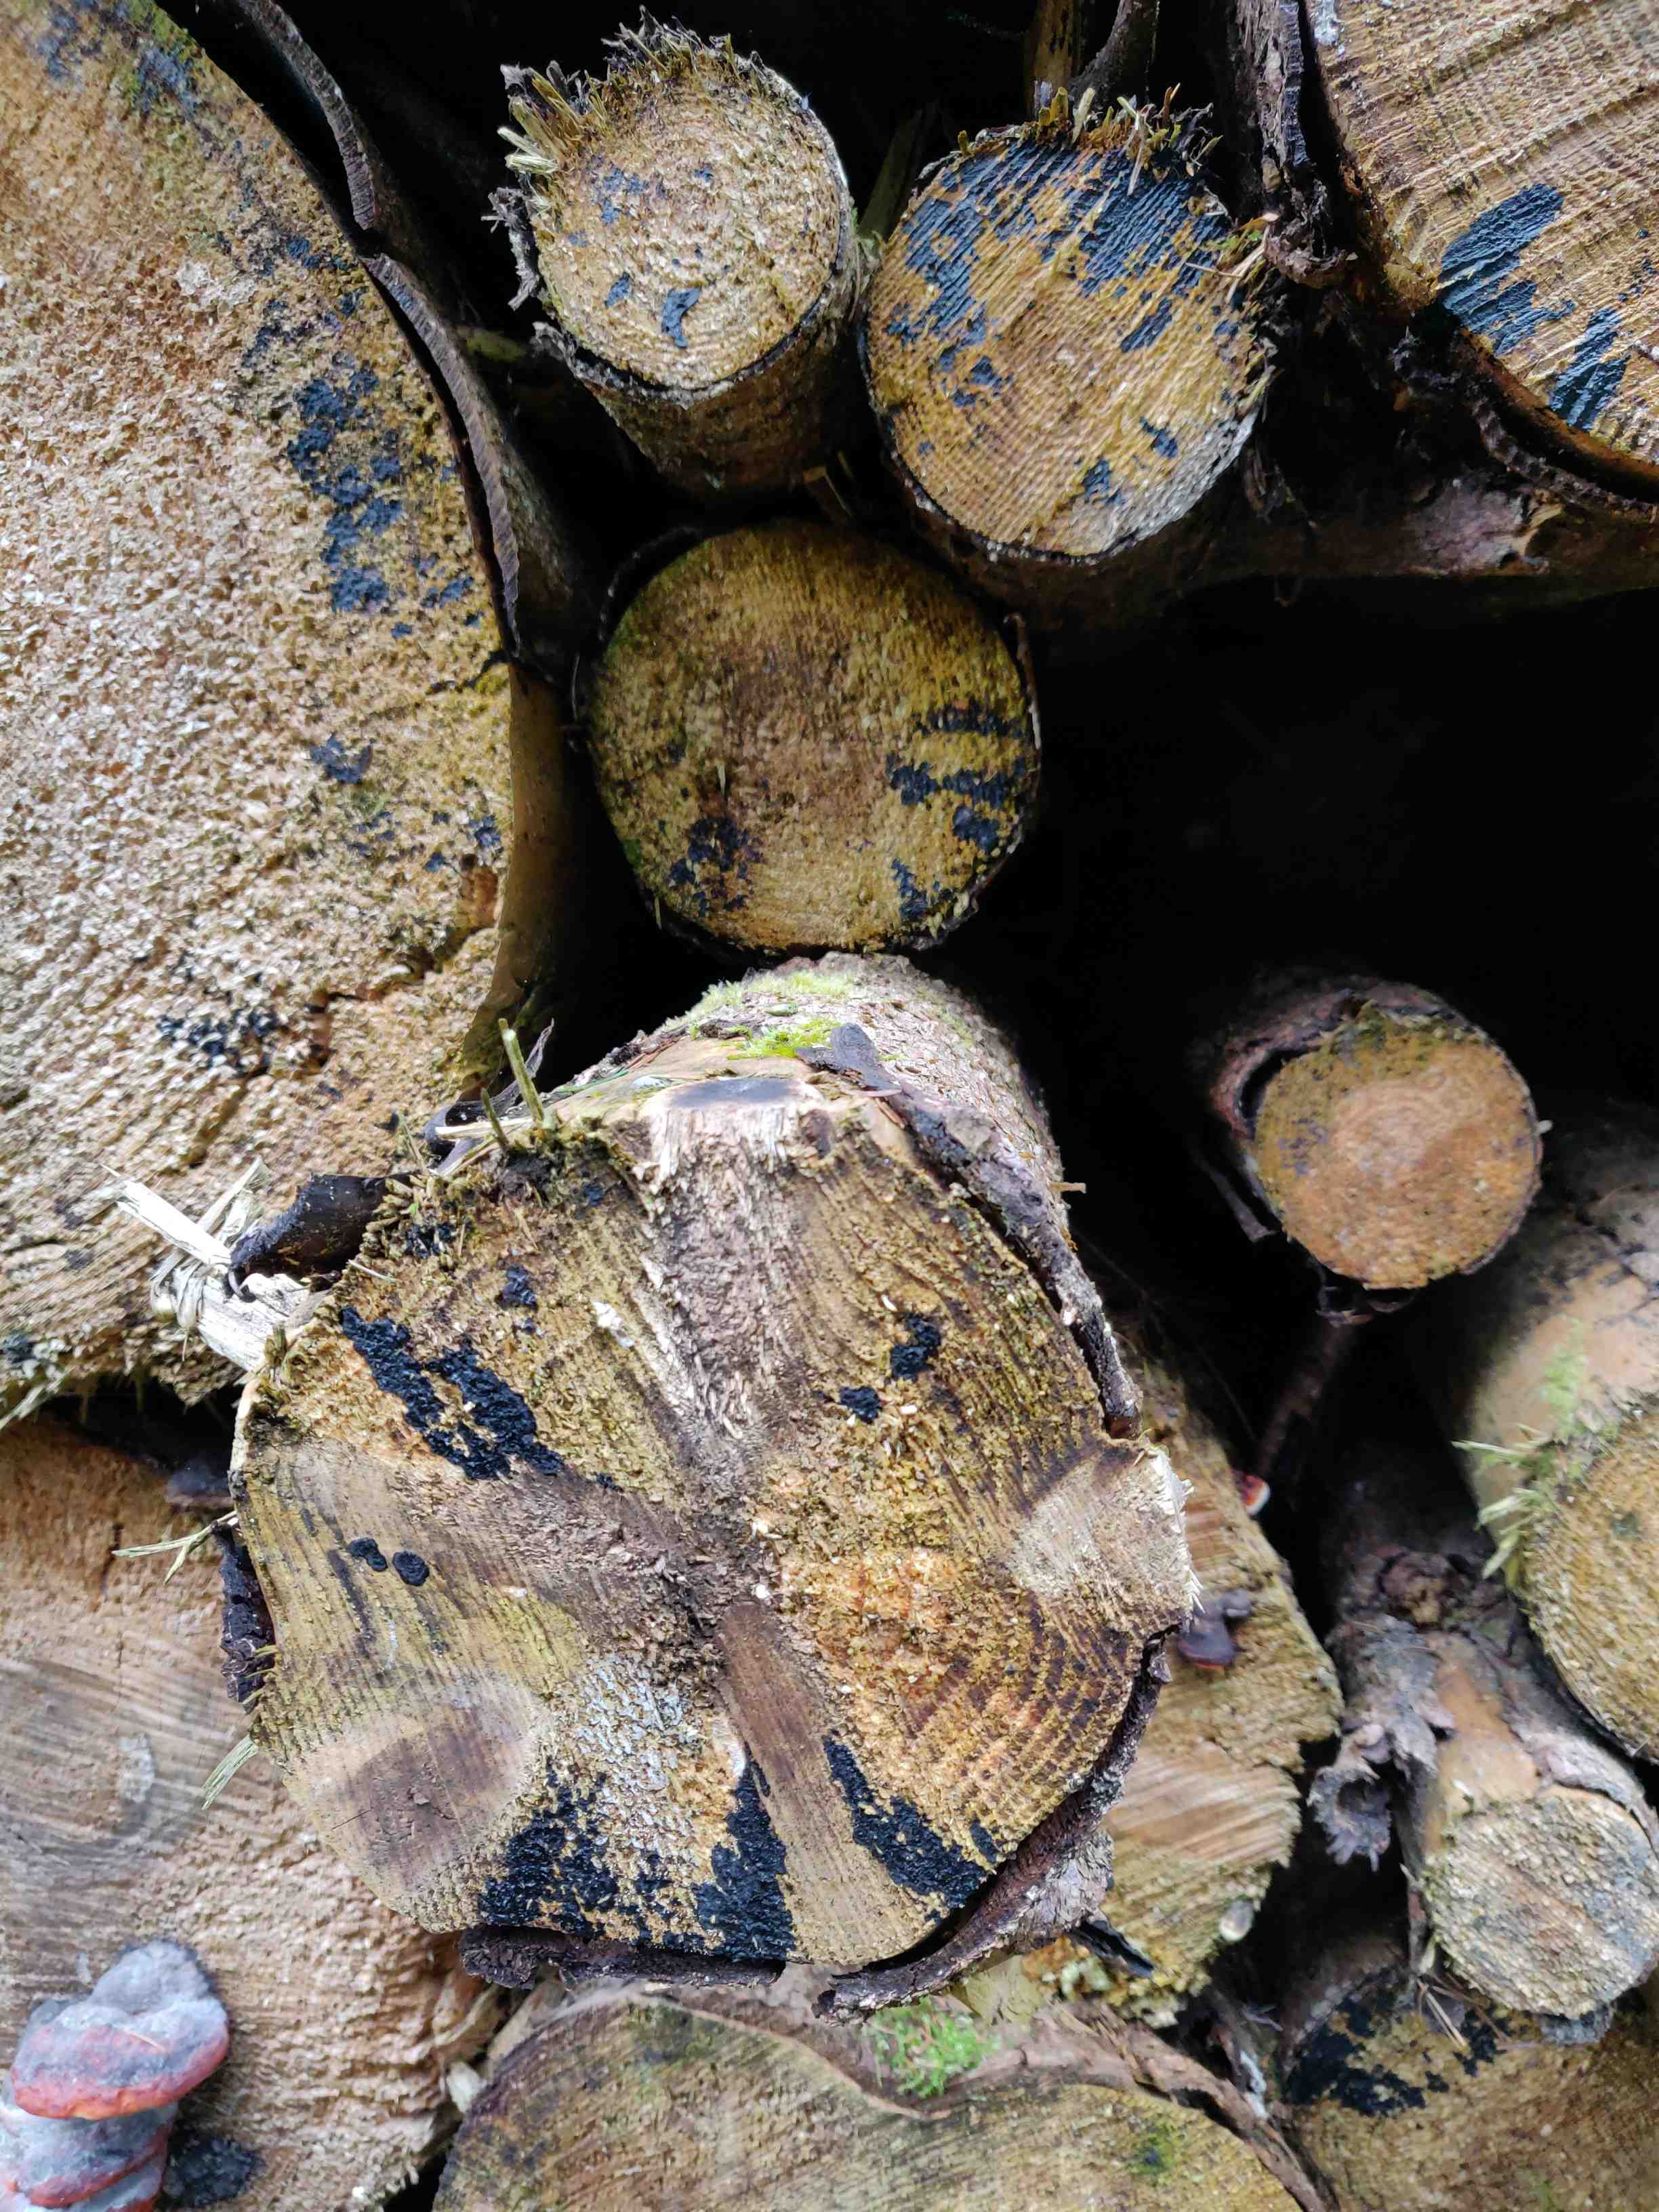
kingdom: Fungi
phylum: Basidiomycota
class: Agaricomycetes
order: Auriculariales
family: Auriculariaceae
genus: Exidia
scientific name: Exidia pithya
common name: gran-bævretop
